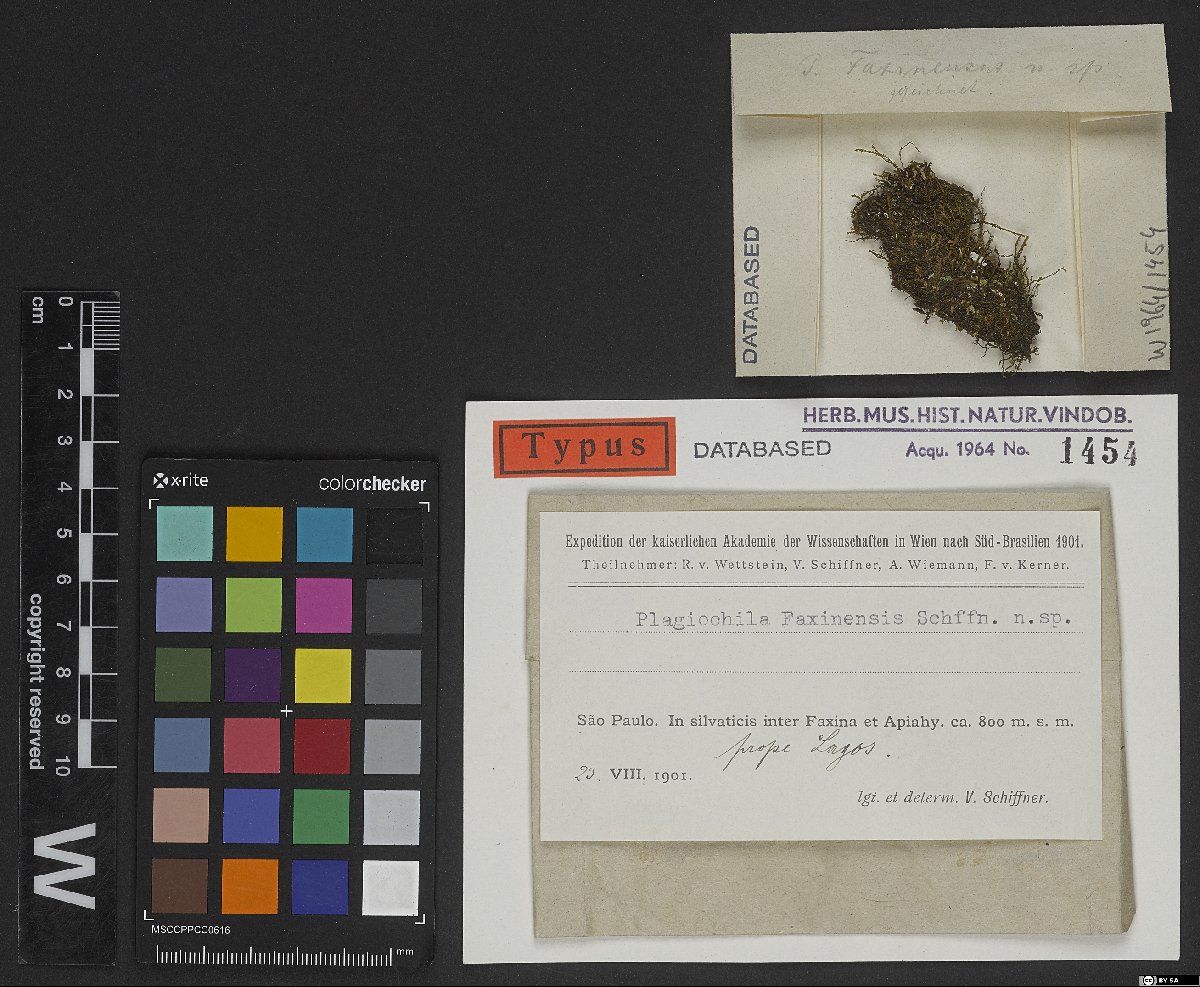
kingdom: Plantae
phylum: Marchantiophyta
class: Jungermanniopsida
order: Jungermanniales
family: Plagiochilaceae
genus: Plagiochila
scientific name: Plagiochila faxinensis
